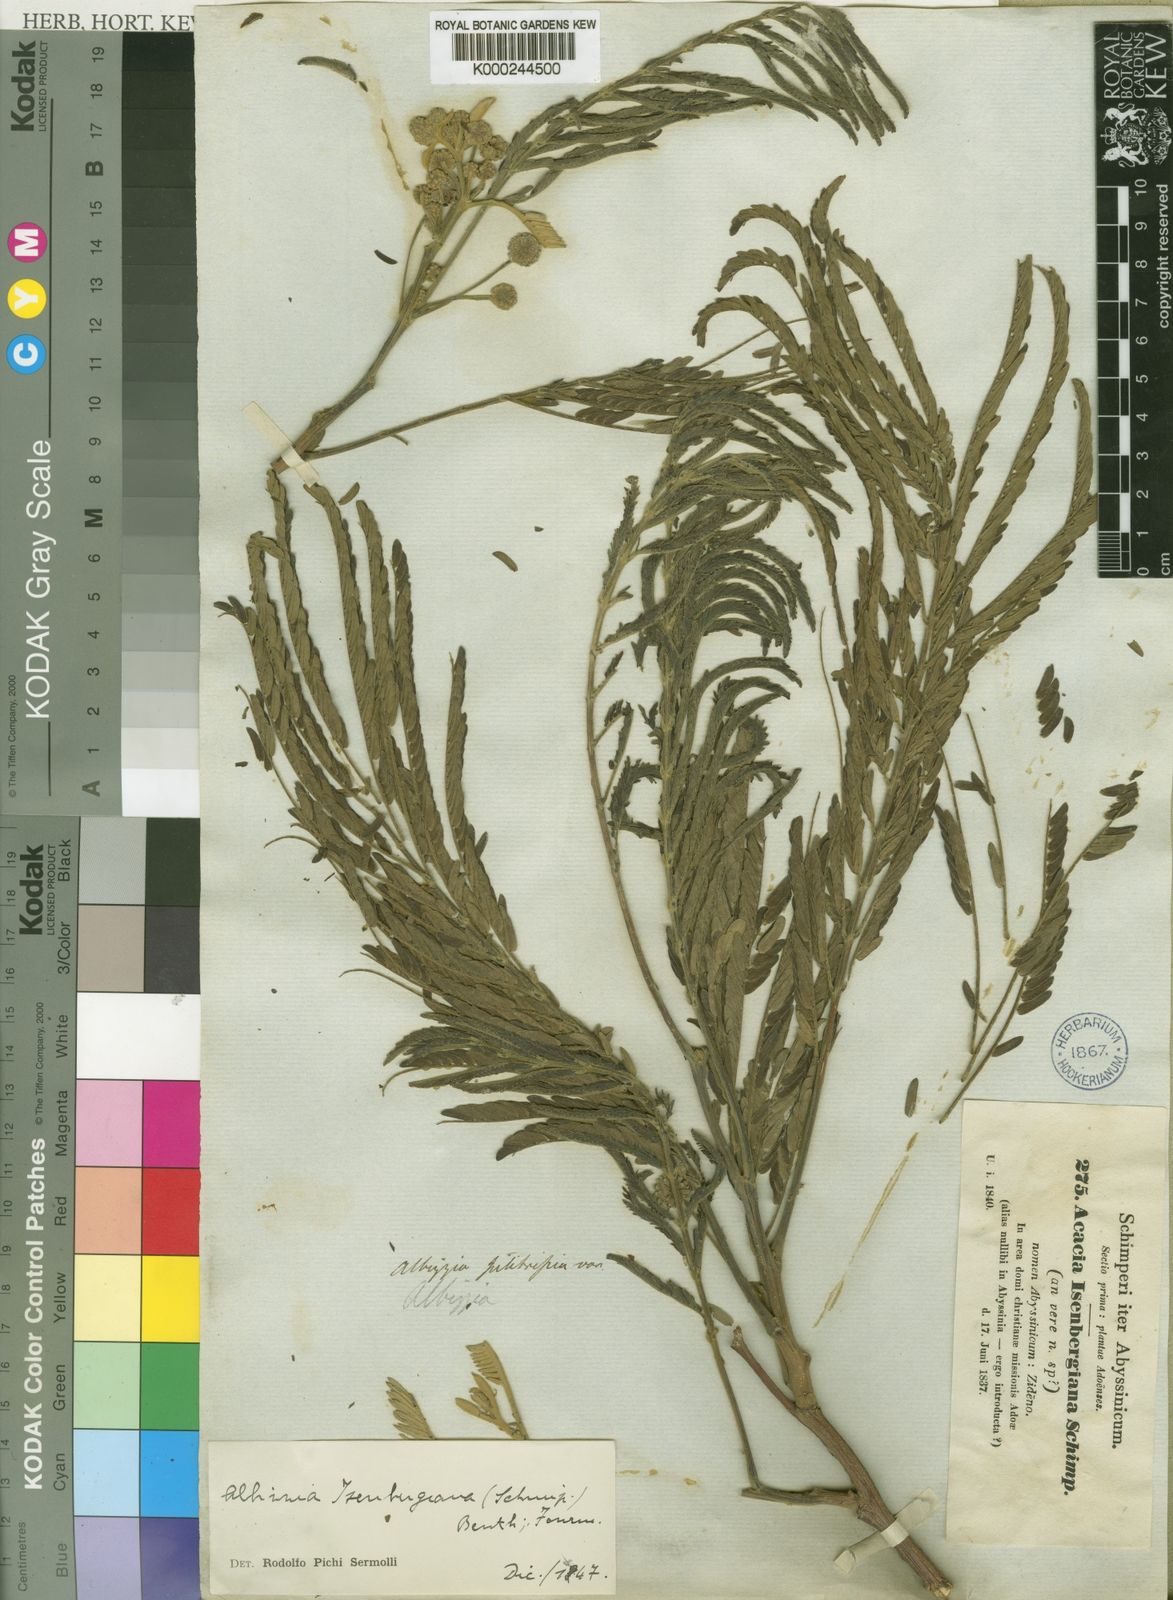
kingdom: Plantae
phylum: Tracheophyta
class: Magnoliopsida
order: Fabales
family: Fabaceae
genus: Acacia
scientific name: Acacia
